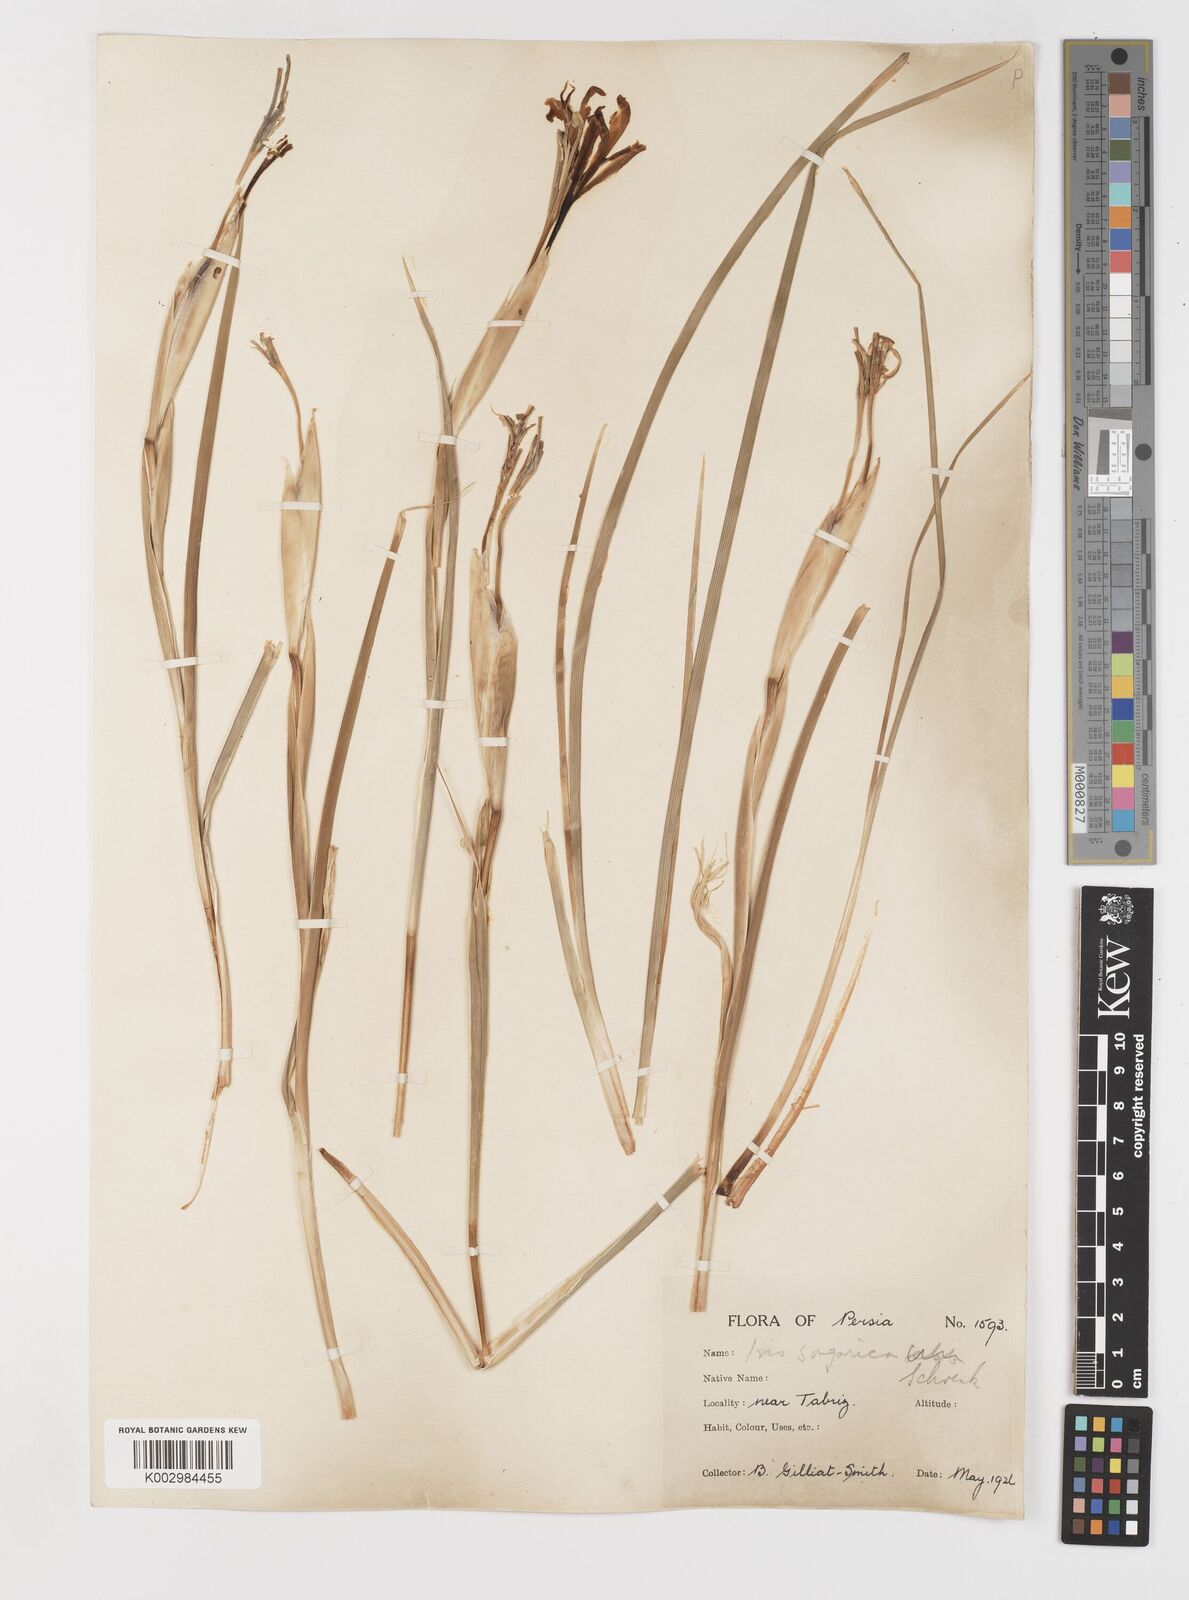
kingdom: Plantae
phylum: Tracheophyta
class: Liliopsida
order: Asparagales
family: Iridaceae
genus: Iris
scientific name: Iris songarica
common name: Songar iris
